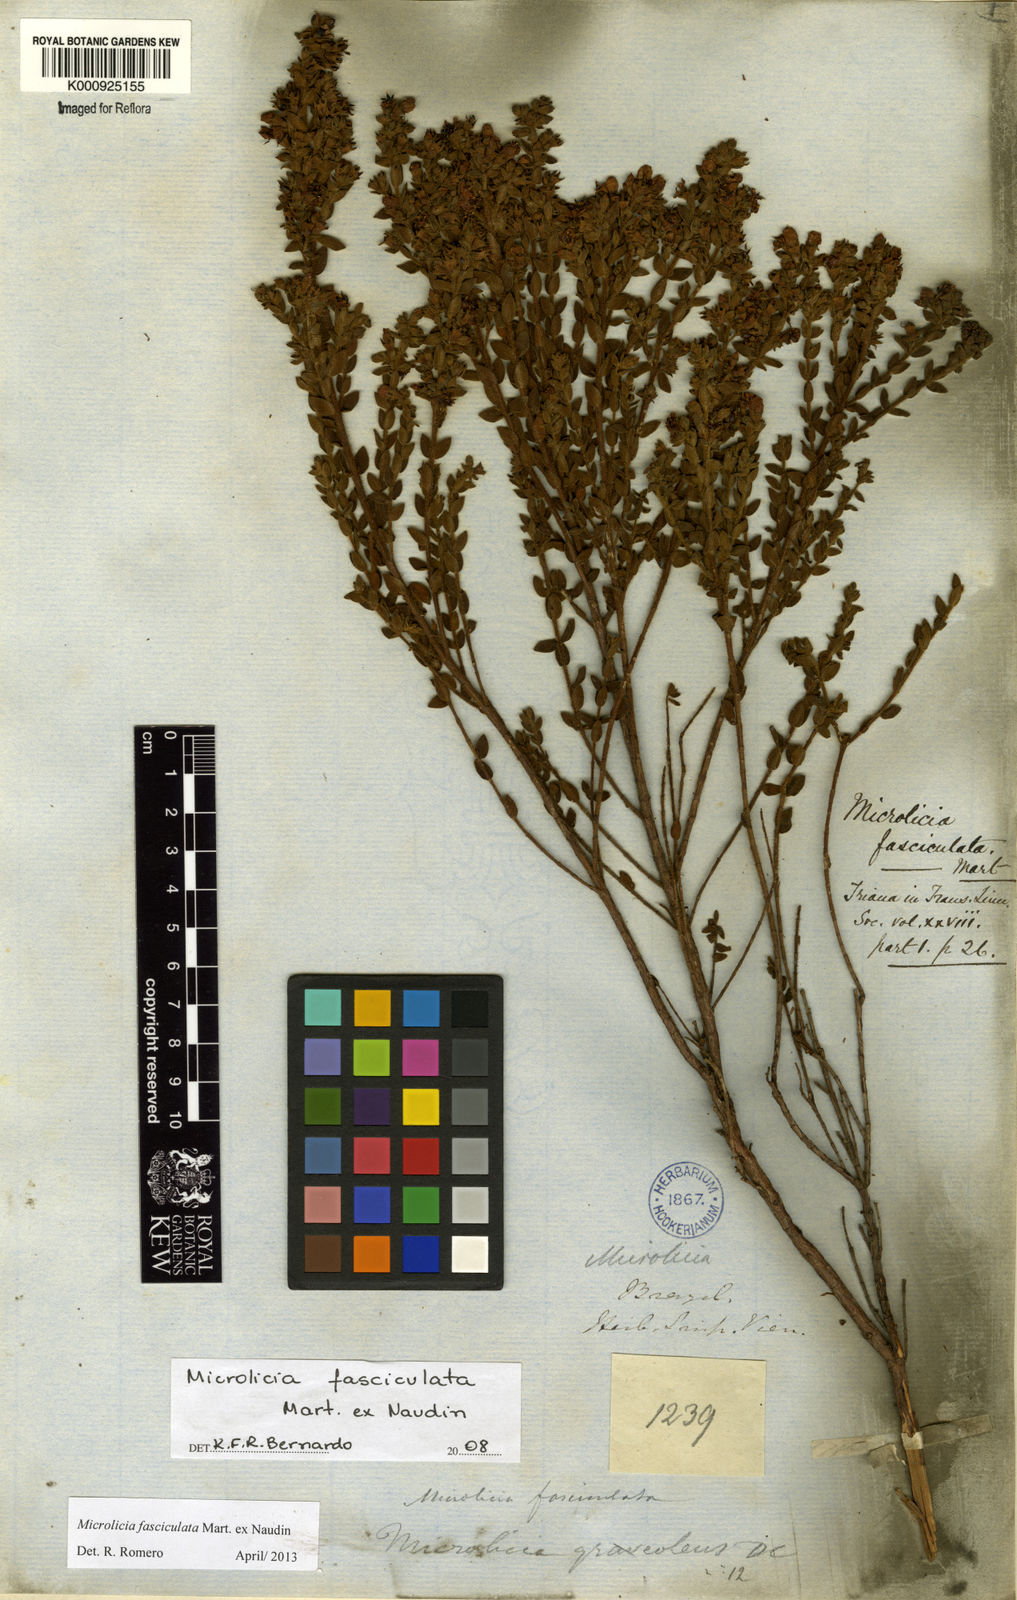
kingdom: Plantae
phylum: Tracheophyta
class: Magnoliopsida
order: Myrtales
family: Melastomataceae
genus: Microlicia
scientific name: Microlicia fasciculata
